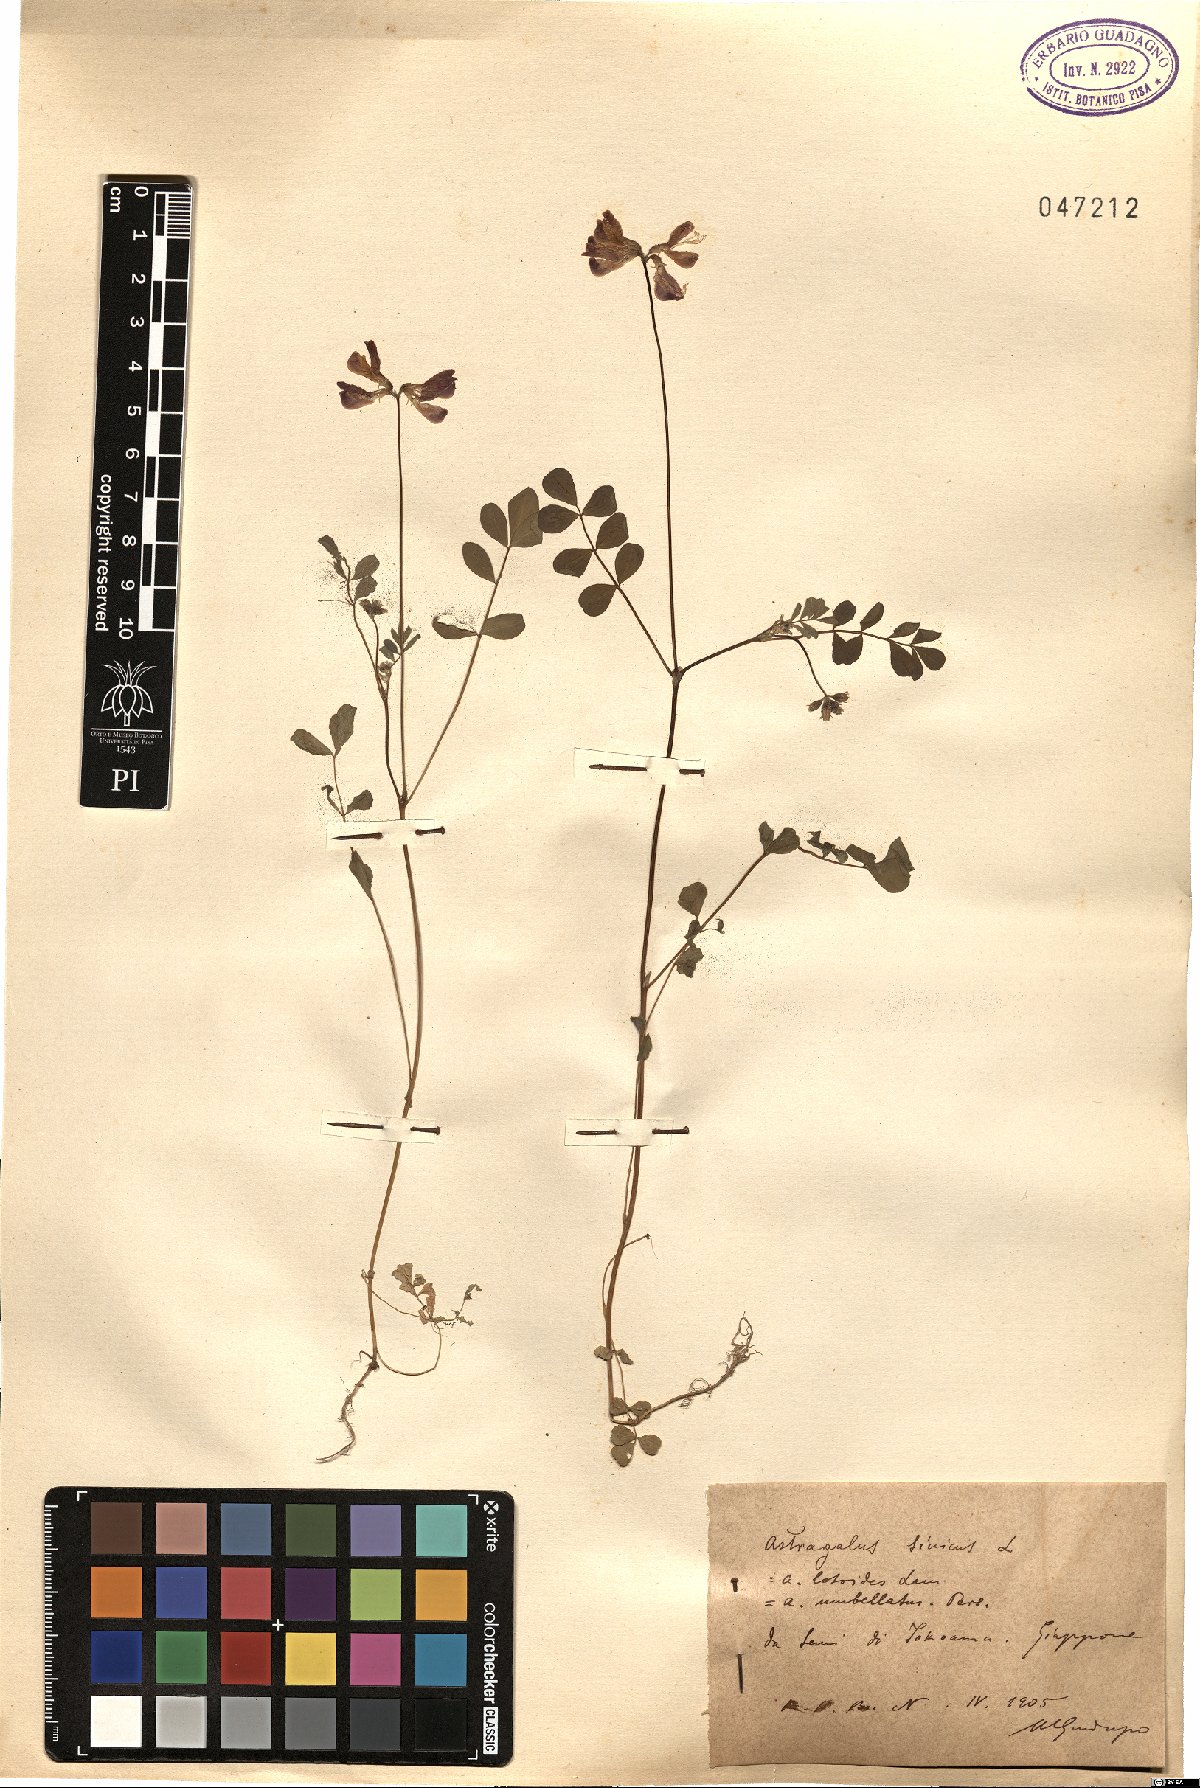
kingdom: Plantae
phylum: Tracheophyta
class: Magnoliopsida
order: Fabales
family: Fabaceae
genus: Astragalus
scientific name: Astragalus sinicus
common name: Chinese milk-vetch
